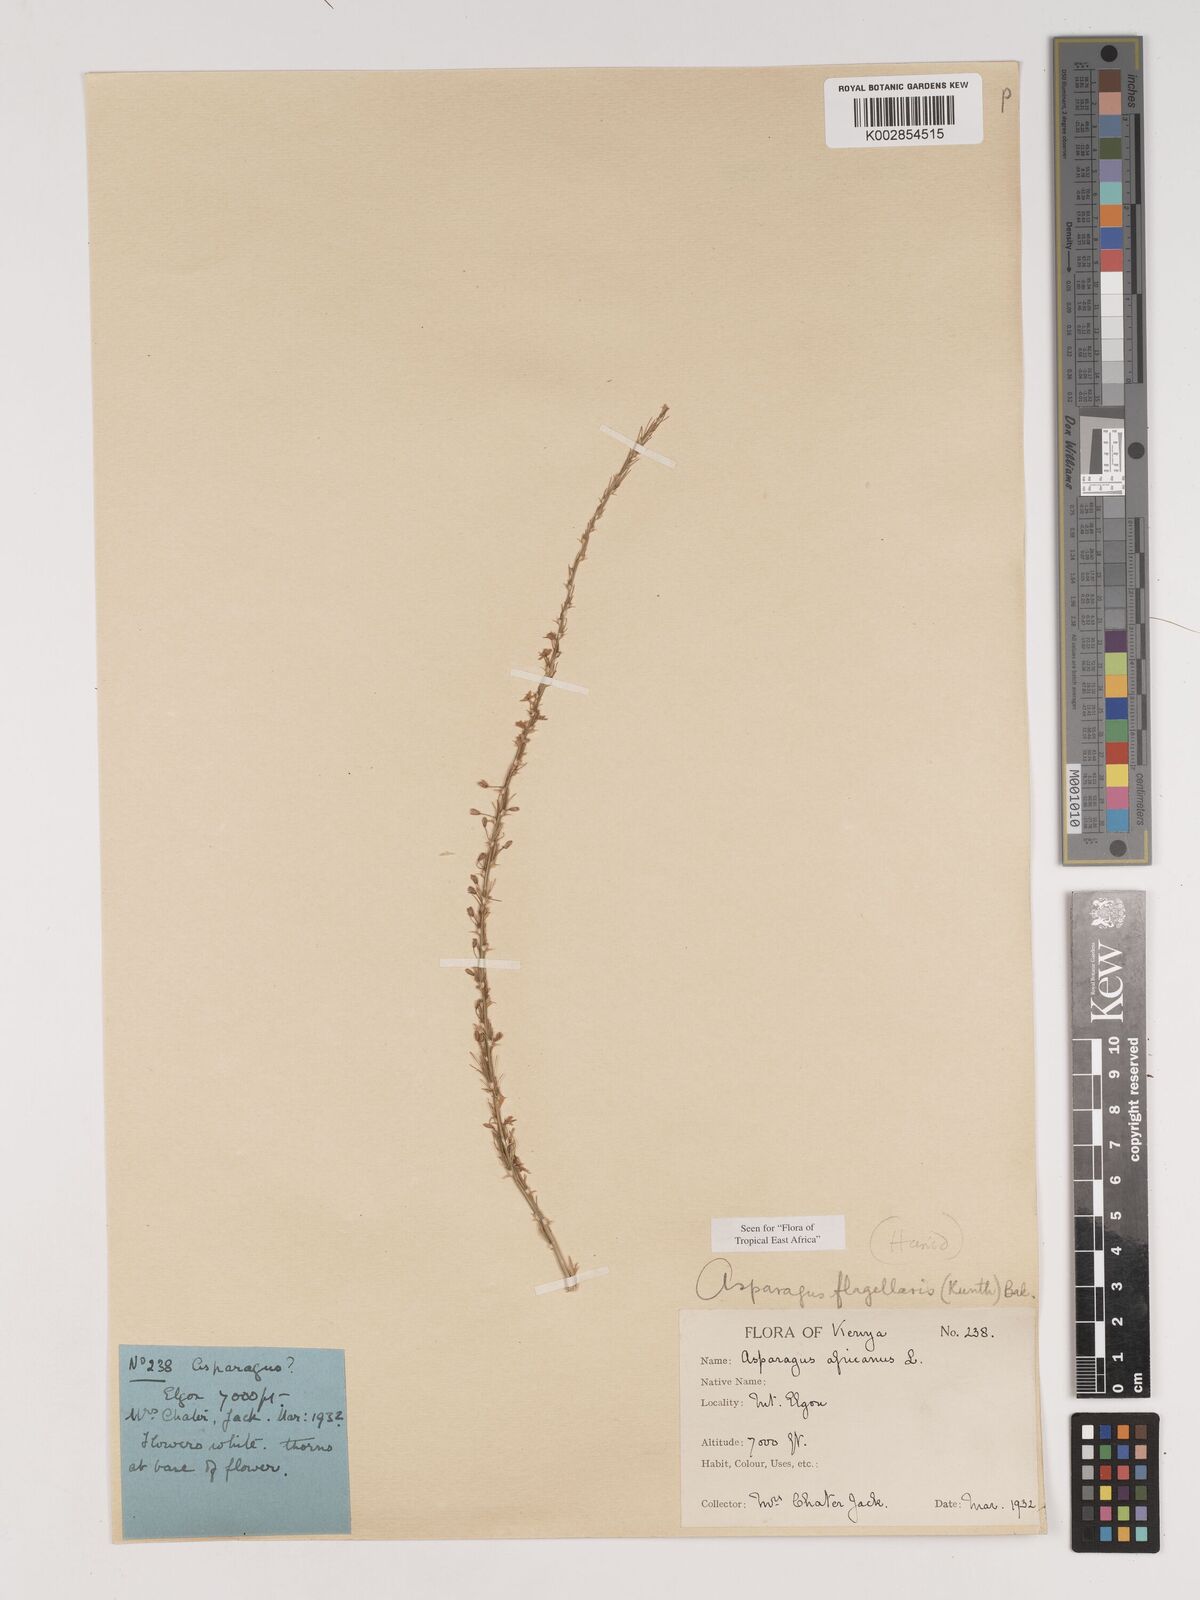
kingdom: Plantae
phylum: Tracheophyta
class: Liliopsida
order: Asparagales
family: Asparagaceae
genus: Asparagus
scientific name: Asparagus flagellaris
